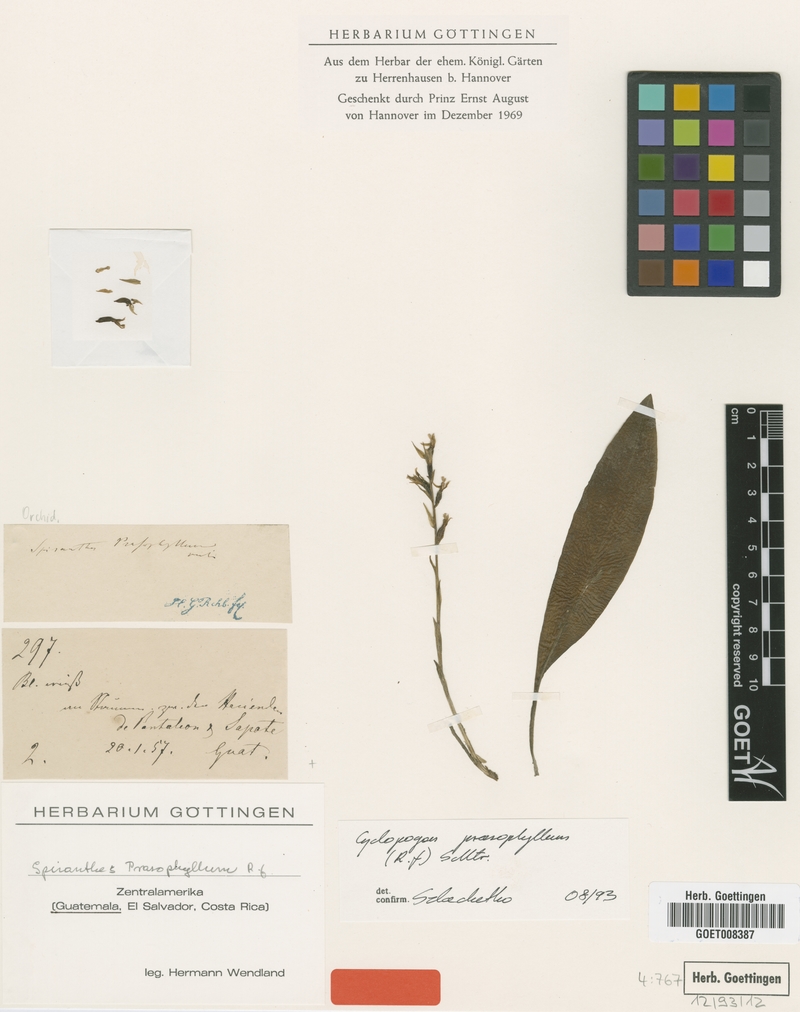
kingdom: Plantae
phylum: Tracheophyta
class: Liliopsida
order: Asparagales
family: Orchidaceae
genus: Cyclopogon
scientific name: Cyclopogon prasophyllus
